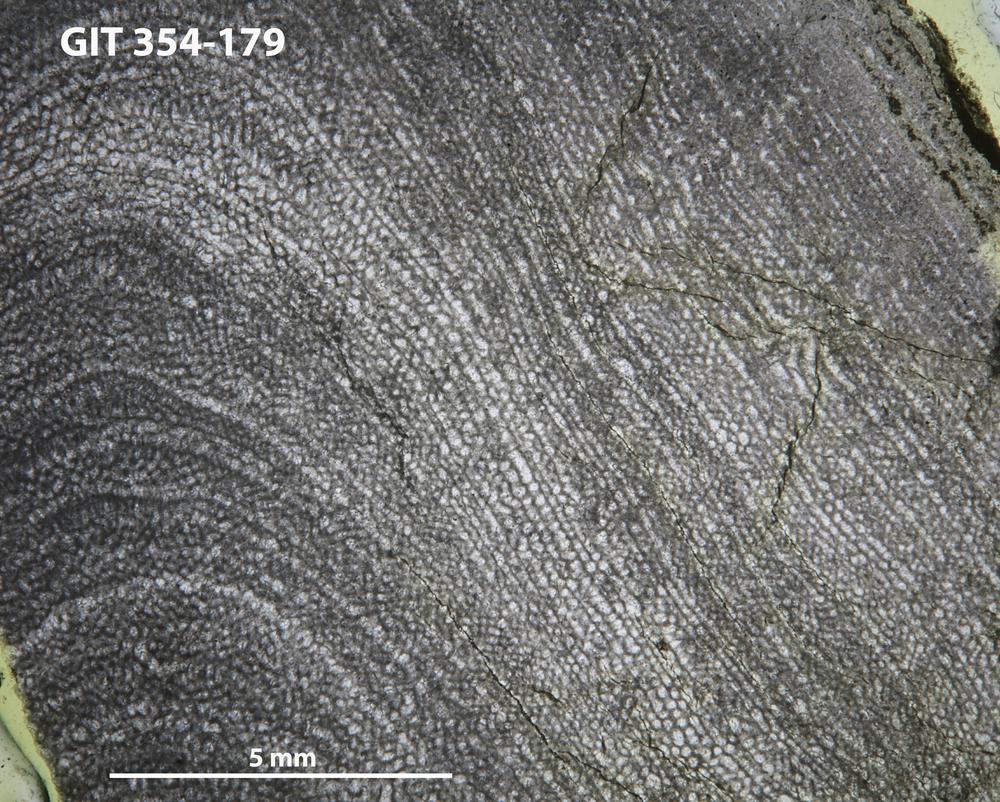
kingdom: Animalia
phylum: Porifera
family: Clathrodictyidae
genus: Clathrodictyon
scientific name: Clathrodictyon boreale
